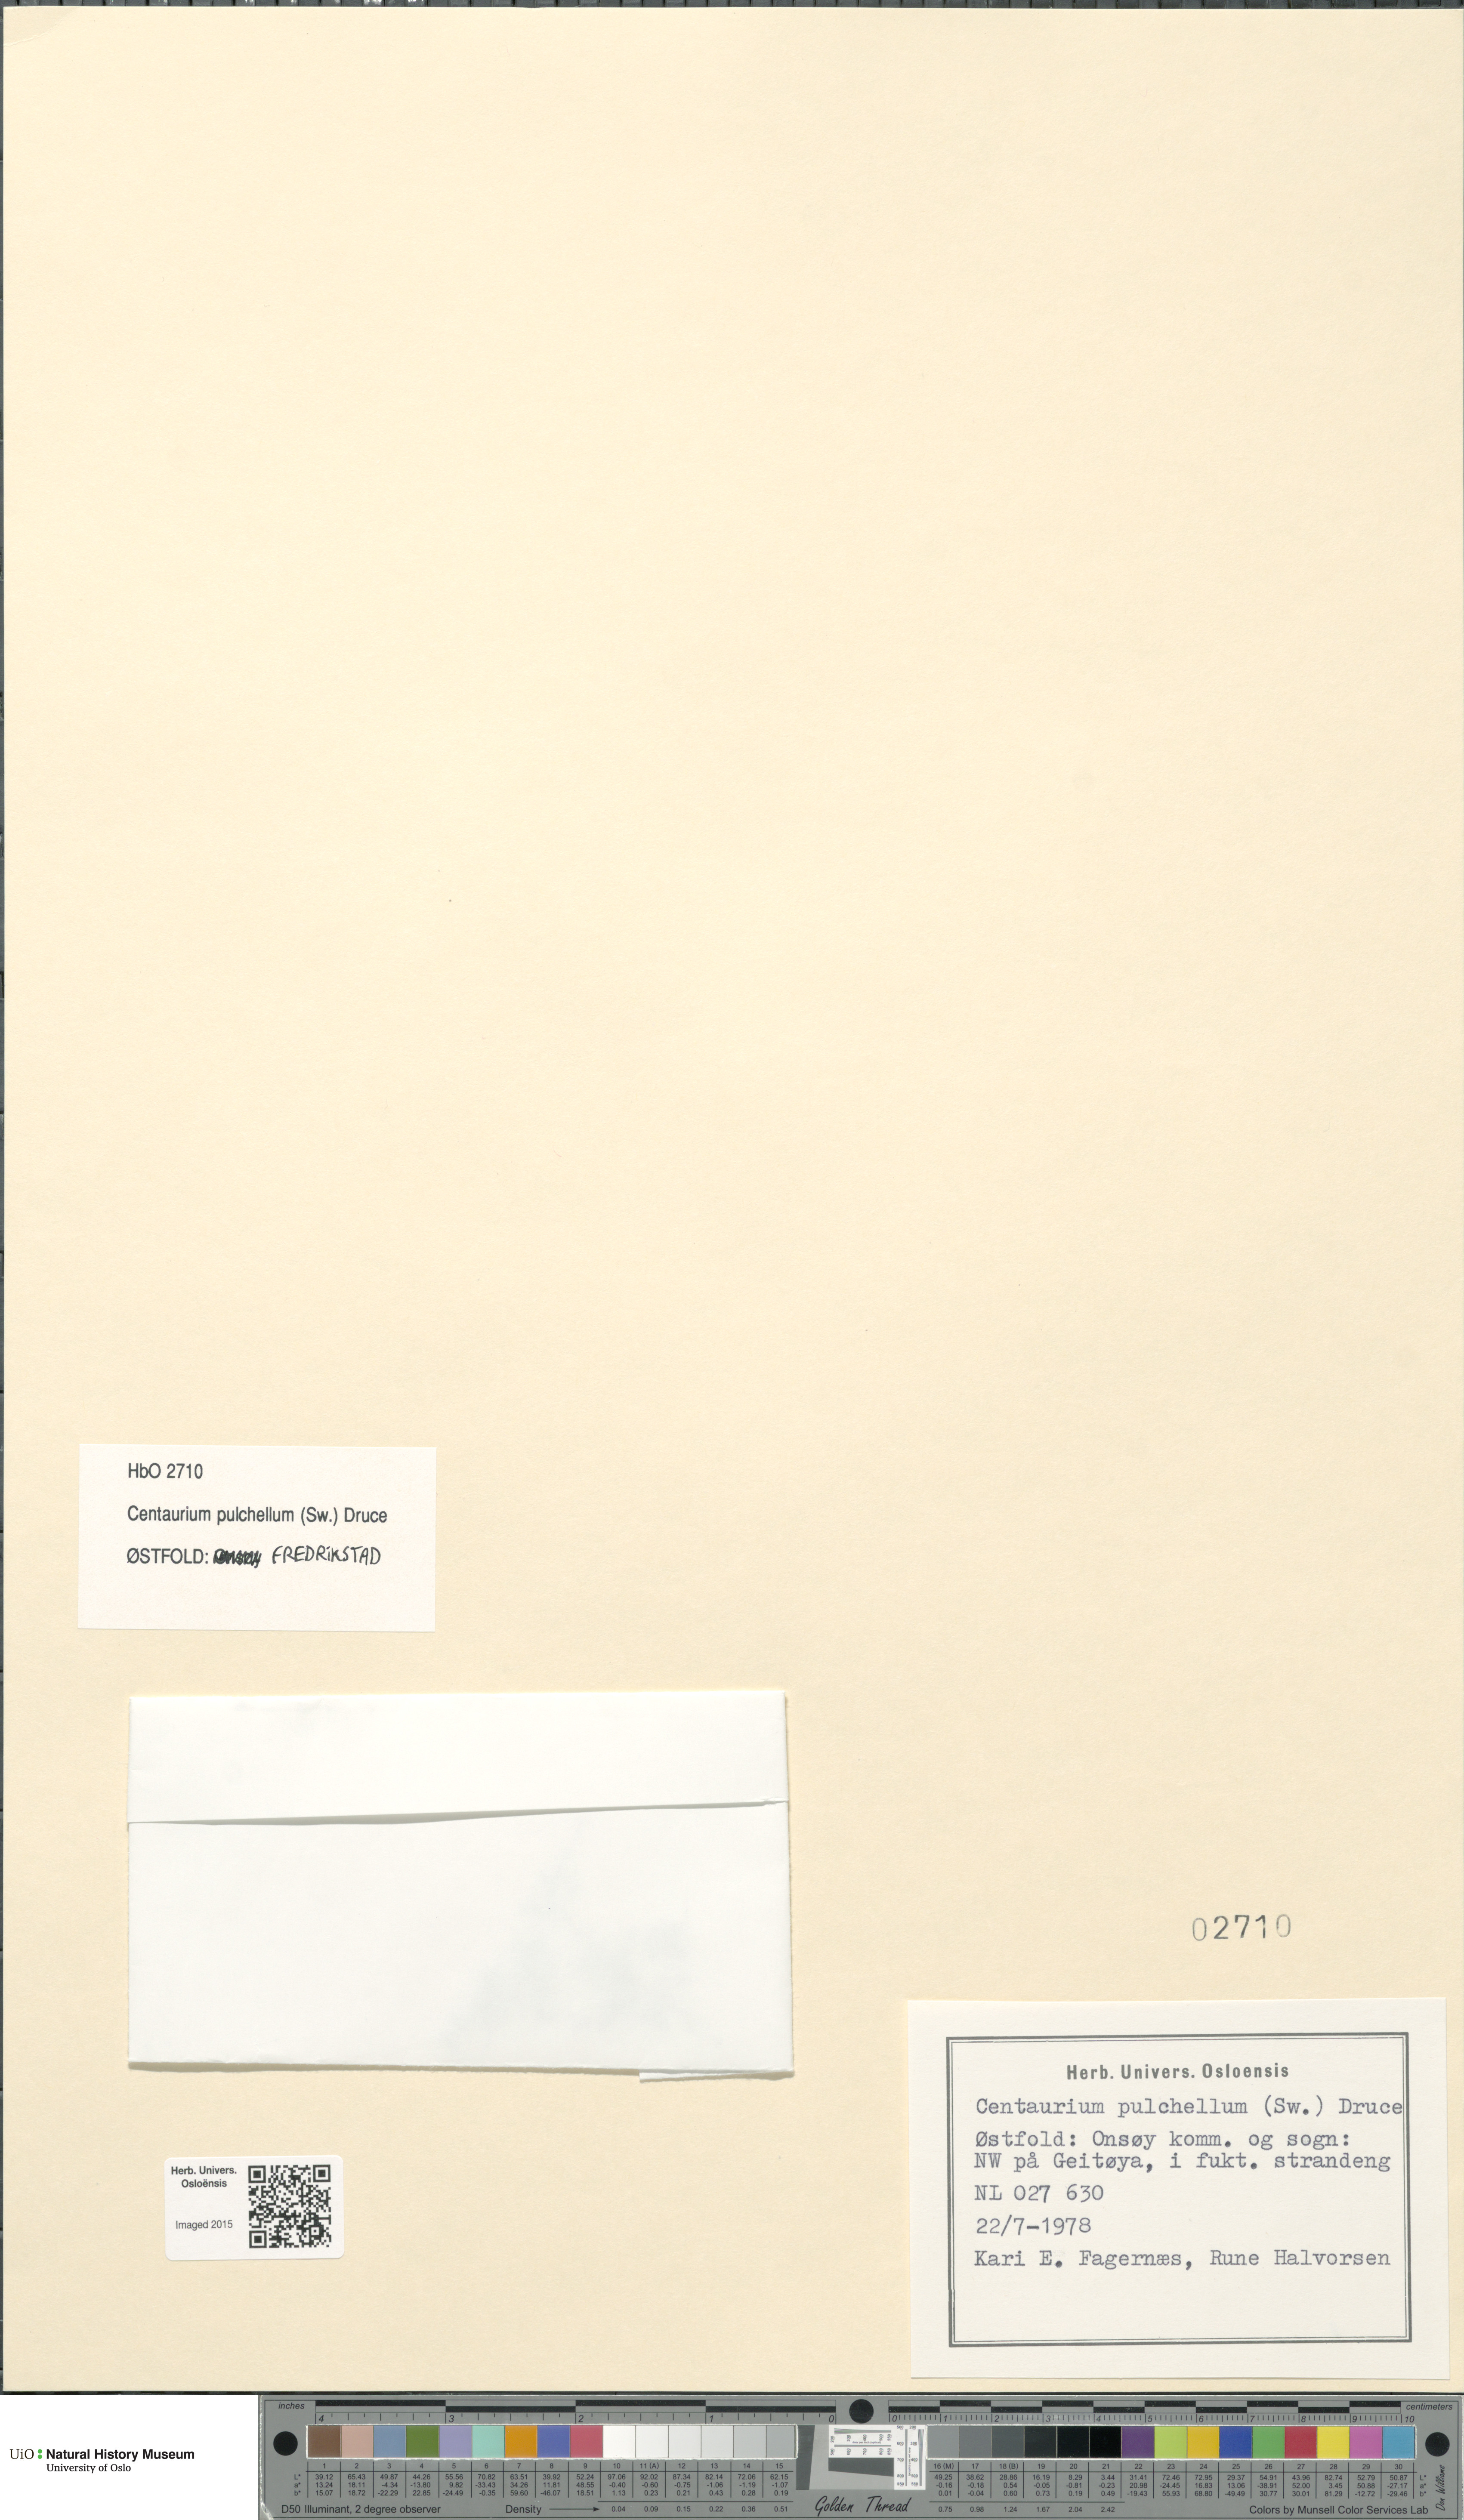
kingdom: Plantae
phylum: Tracheophyta
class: Magnoliopsida
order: Gentianales
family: Gentianaceae
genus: Centaurium
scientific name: Centaurium pulchellum
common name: Lesser centaury
